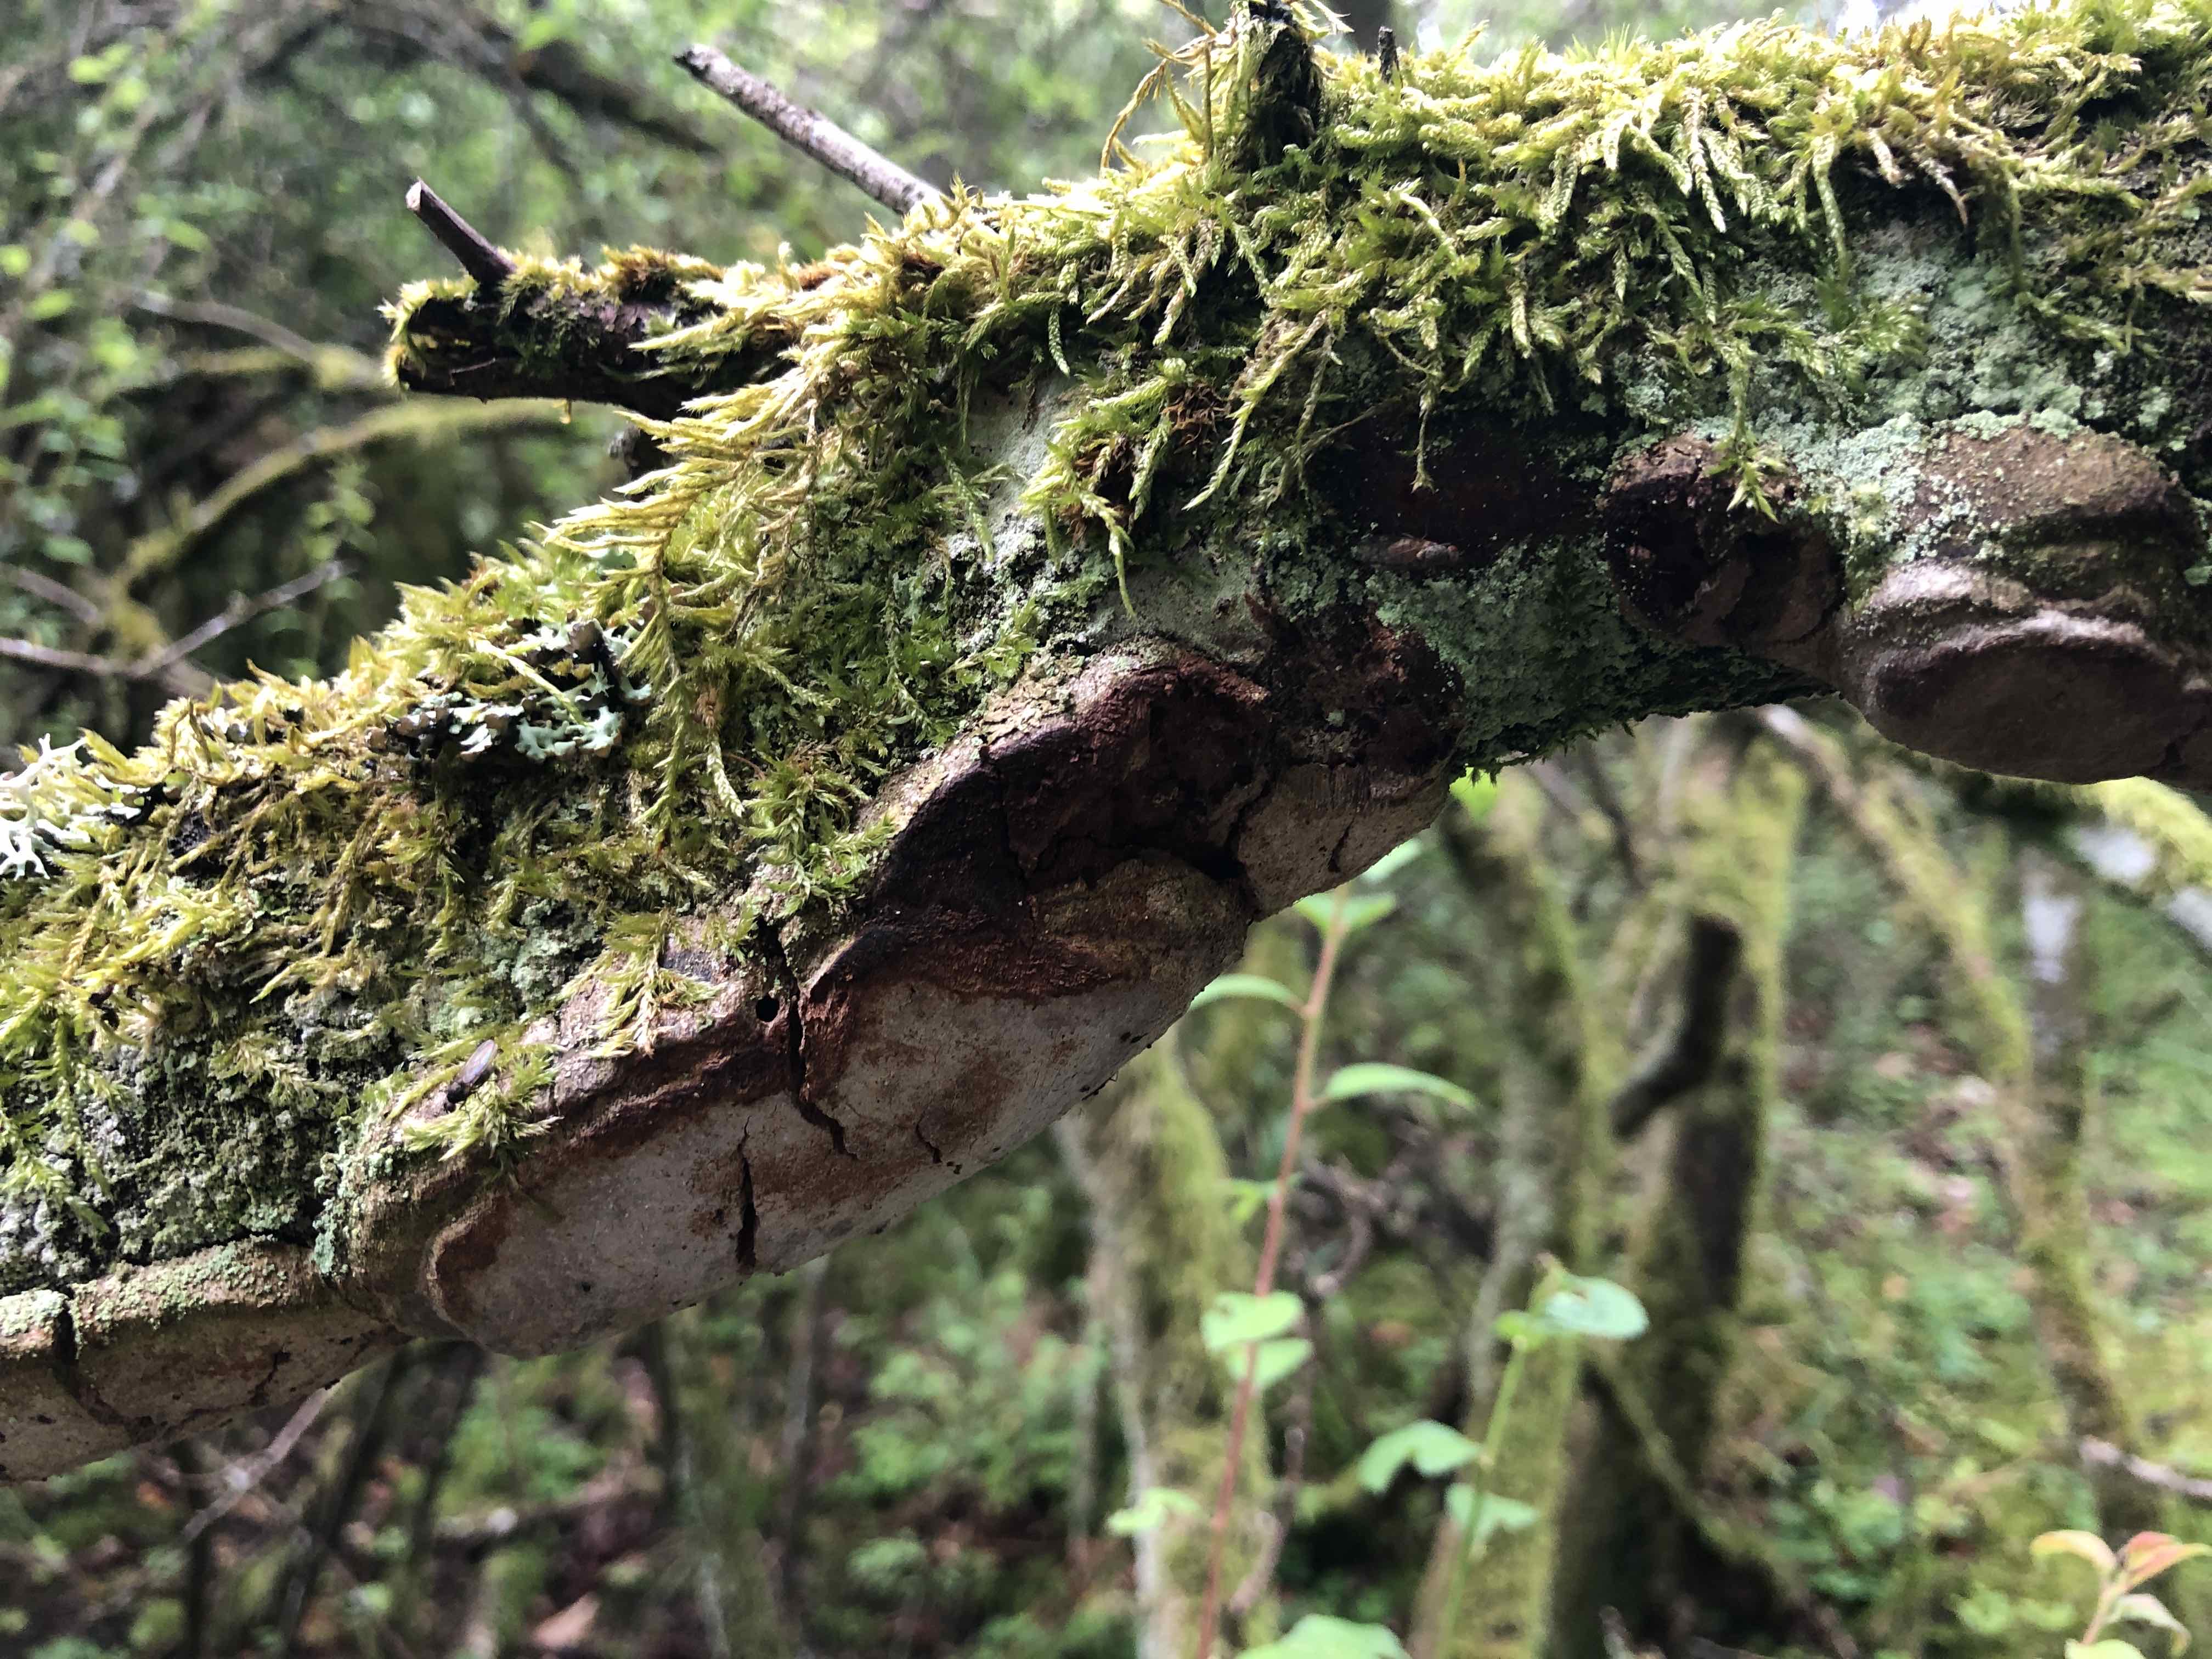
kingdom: Fungi
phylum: Basidiomycota
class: Agaricomycetes
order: Hymenochaetales
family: Hymenochaetaceae
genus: Phellinus
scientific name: Phellinus pomaceus
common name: blomme-ildporesvamp
